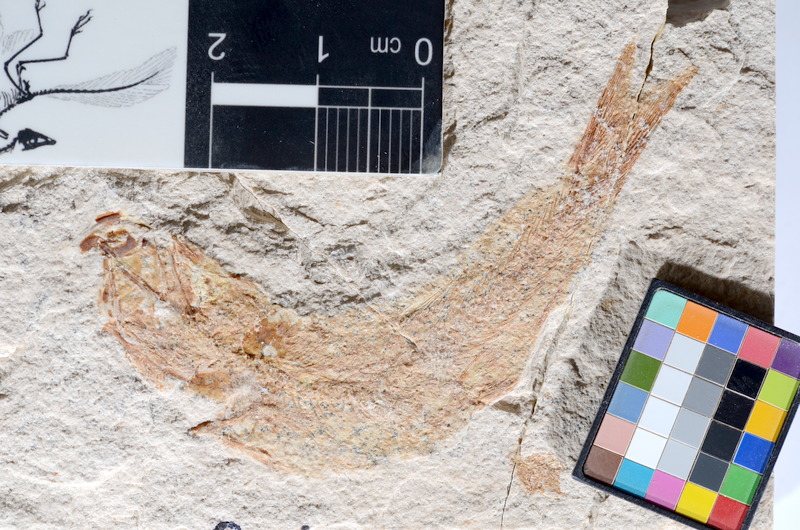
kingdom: Animalia
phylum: Chordata
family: Ascalaboidae
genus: Tharsis
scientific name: Tharsis dubius
